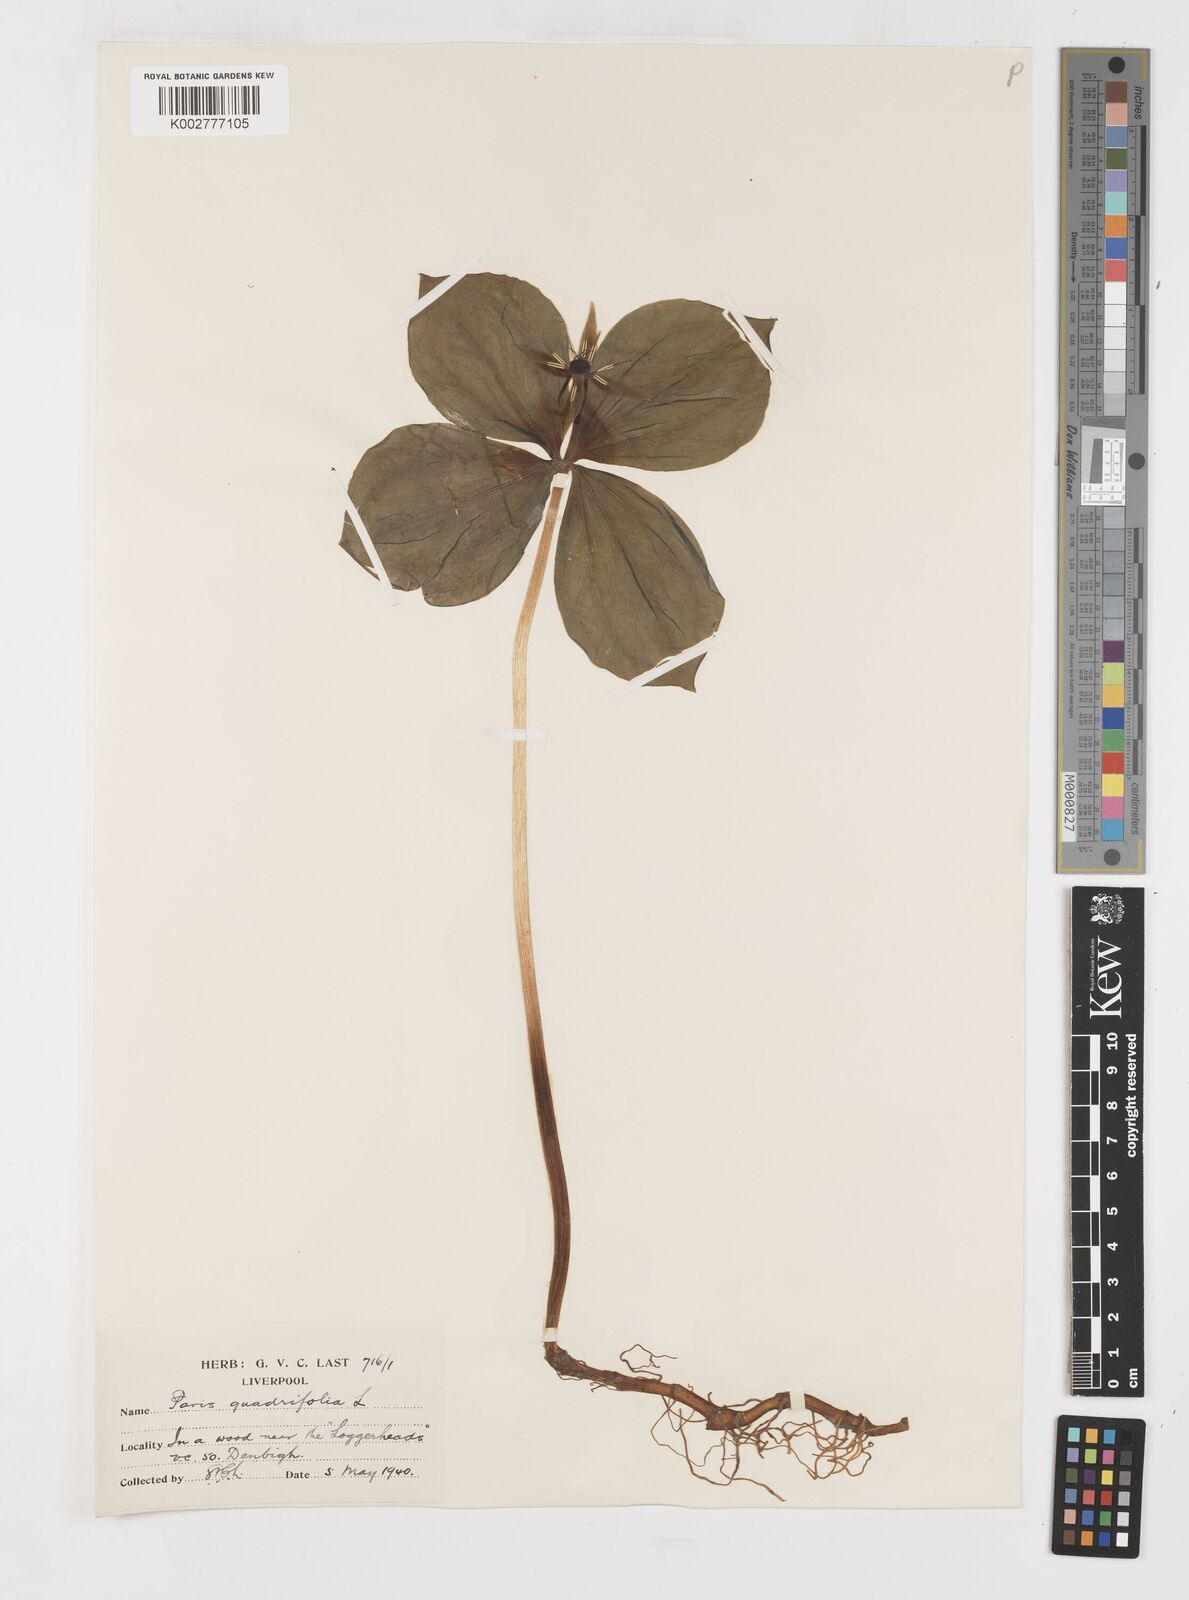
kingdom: Plantae
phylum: Tracheophyta
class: Liliopsida
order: Liliales
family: Melanthiaceae
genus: Paris
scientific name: Paris quadrifolia
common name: Herb-paris
